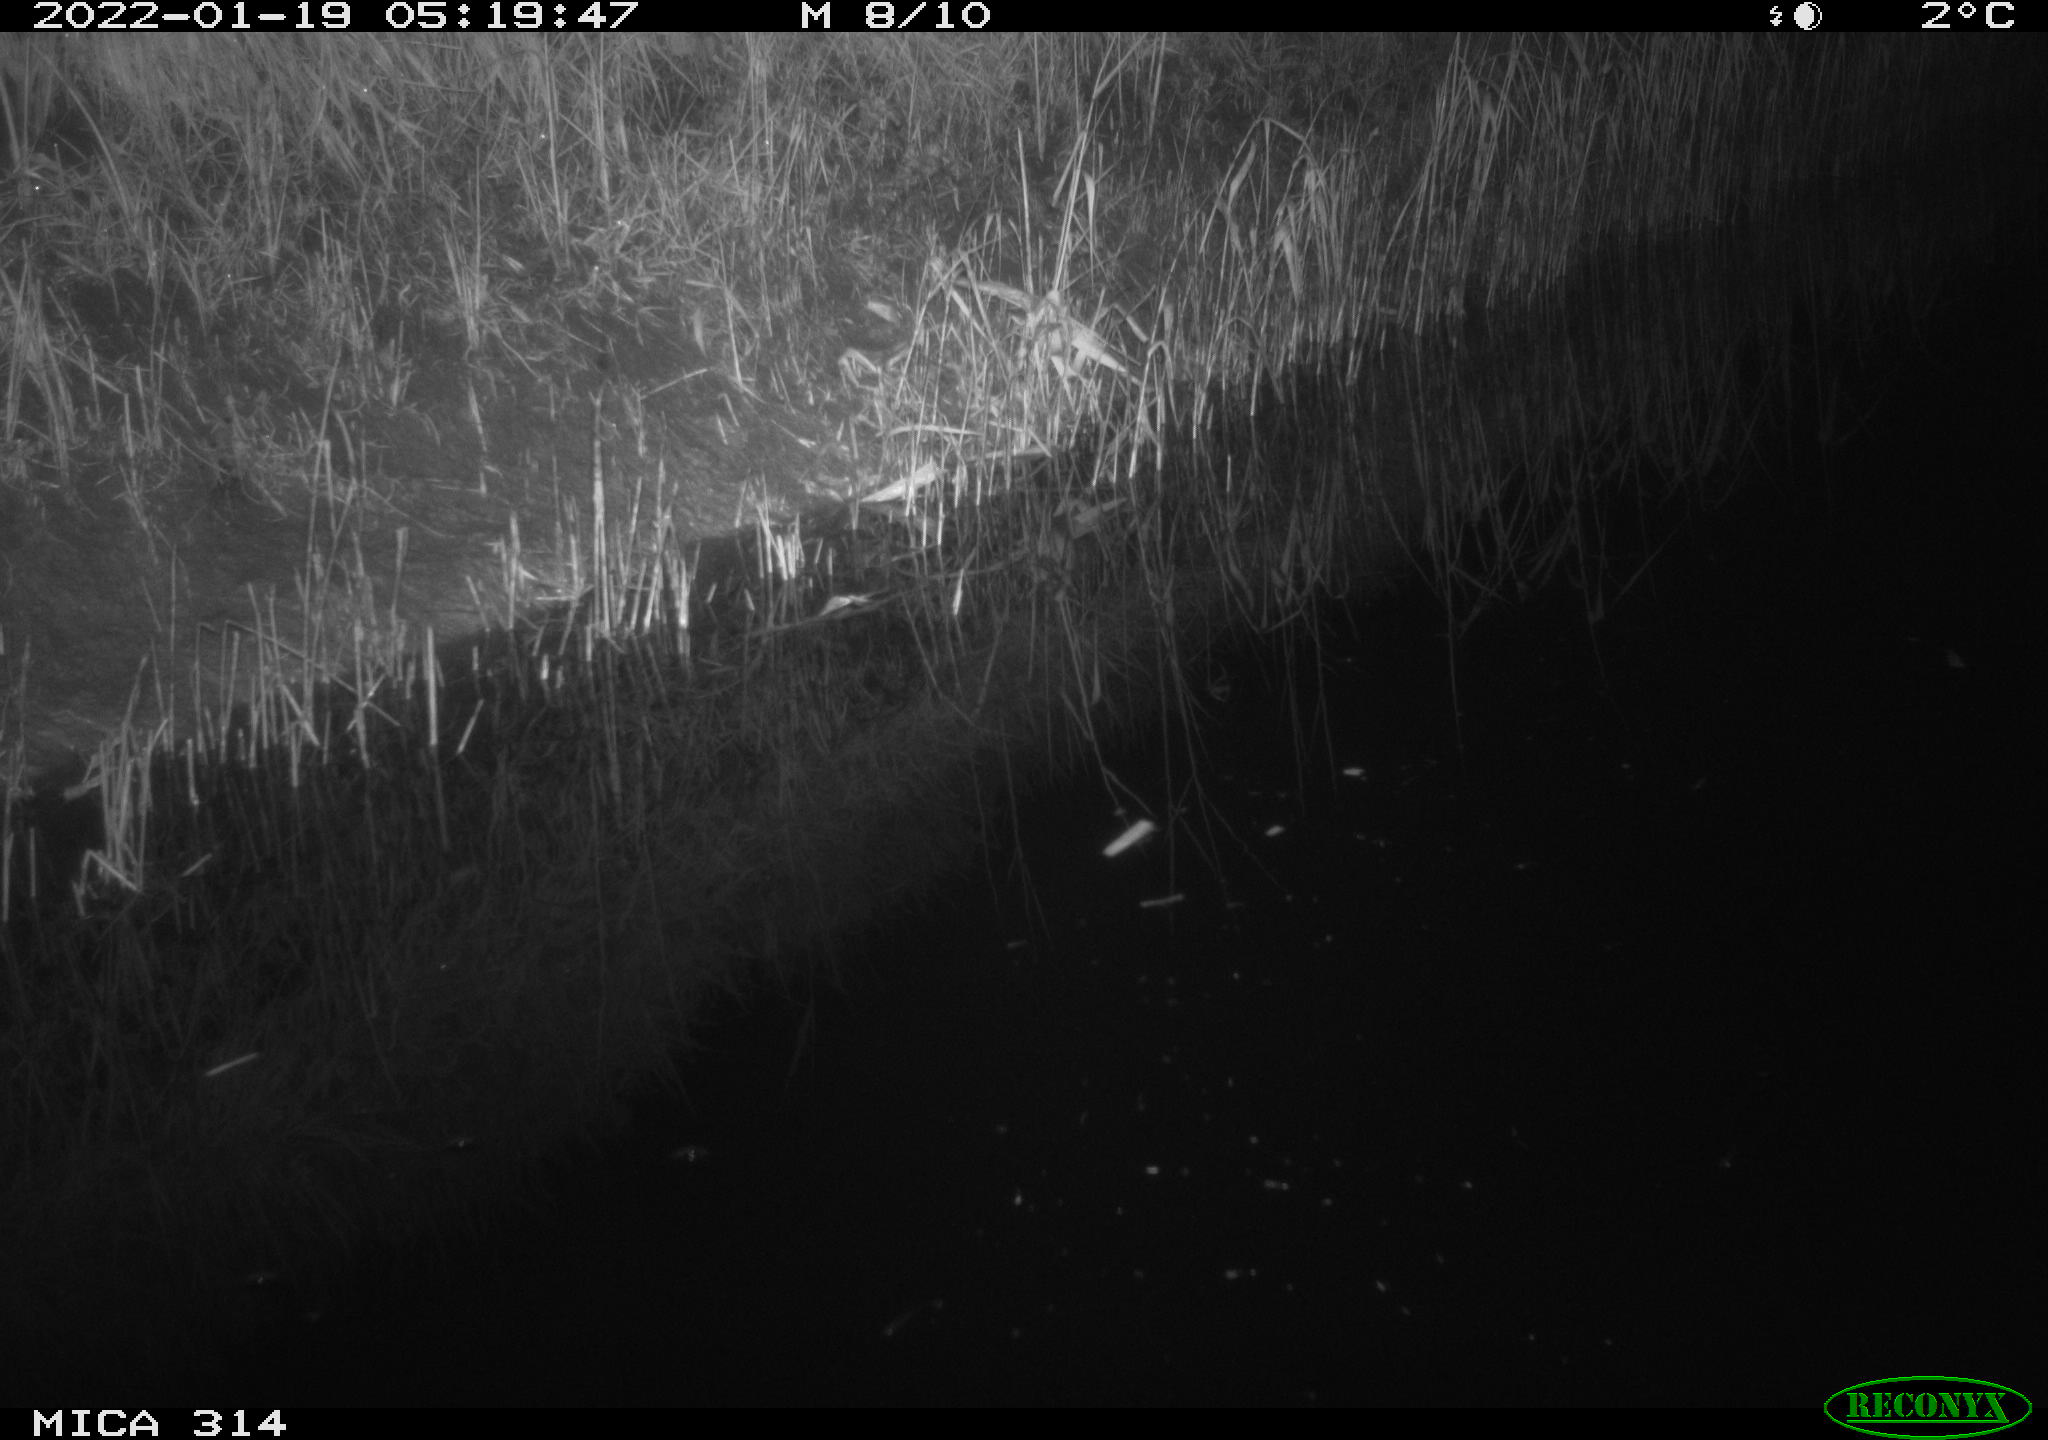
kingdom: Animalia
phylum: Chordata
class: Mammalia
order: Rodentia
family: Muridae
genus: Rattus
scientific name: Rattus norvegicus
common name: Brown rat
